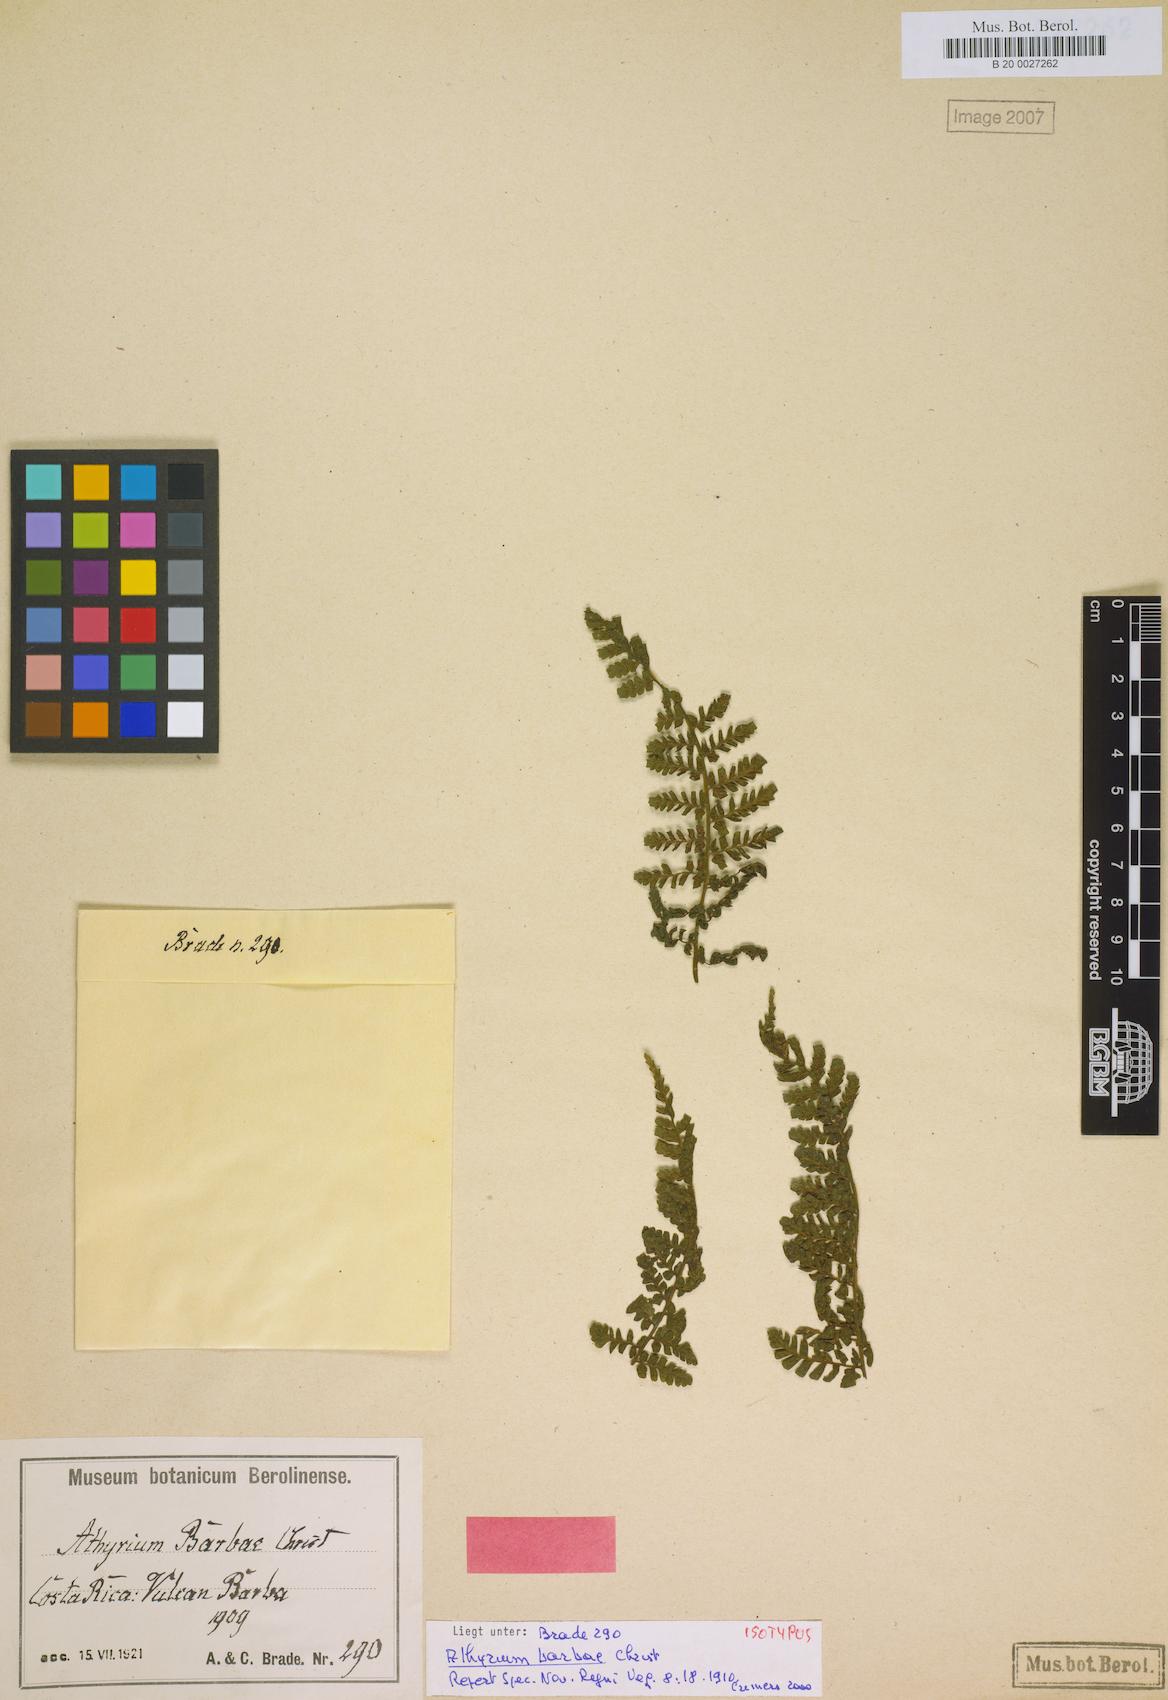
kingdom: Plantae
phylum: Tracheophyta
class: Polypodiopsida
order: Polypodiales
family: Athyriaceae
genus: Athyrium
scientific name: Athyrium barbae
